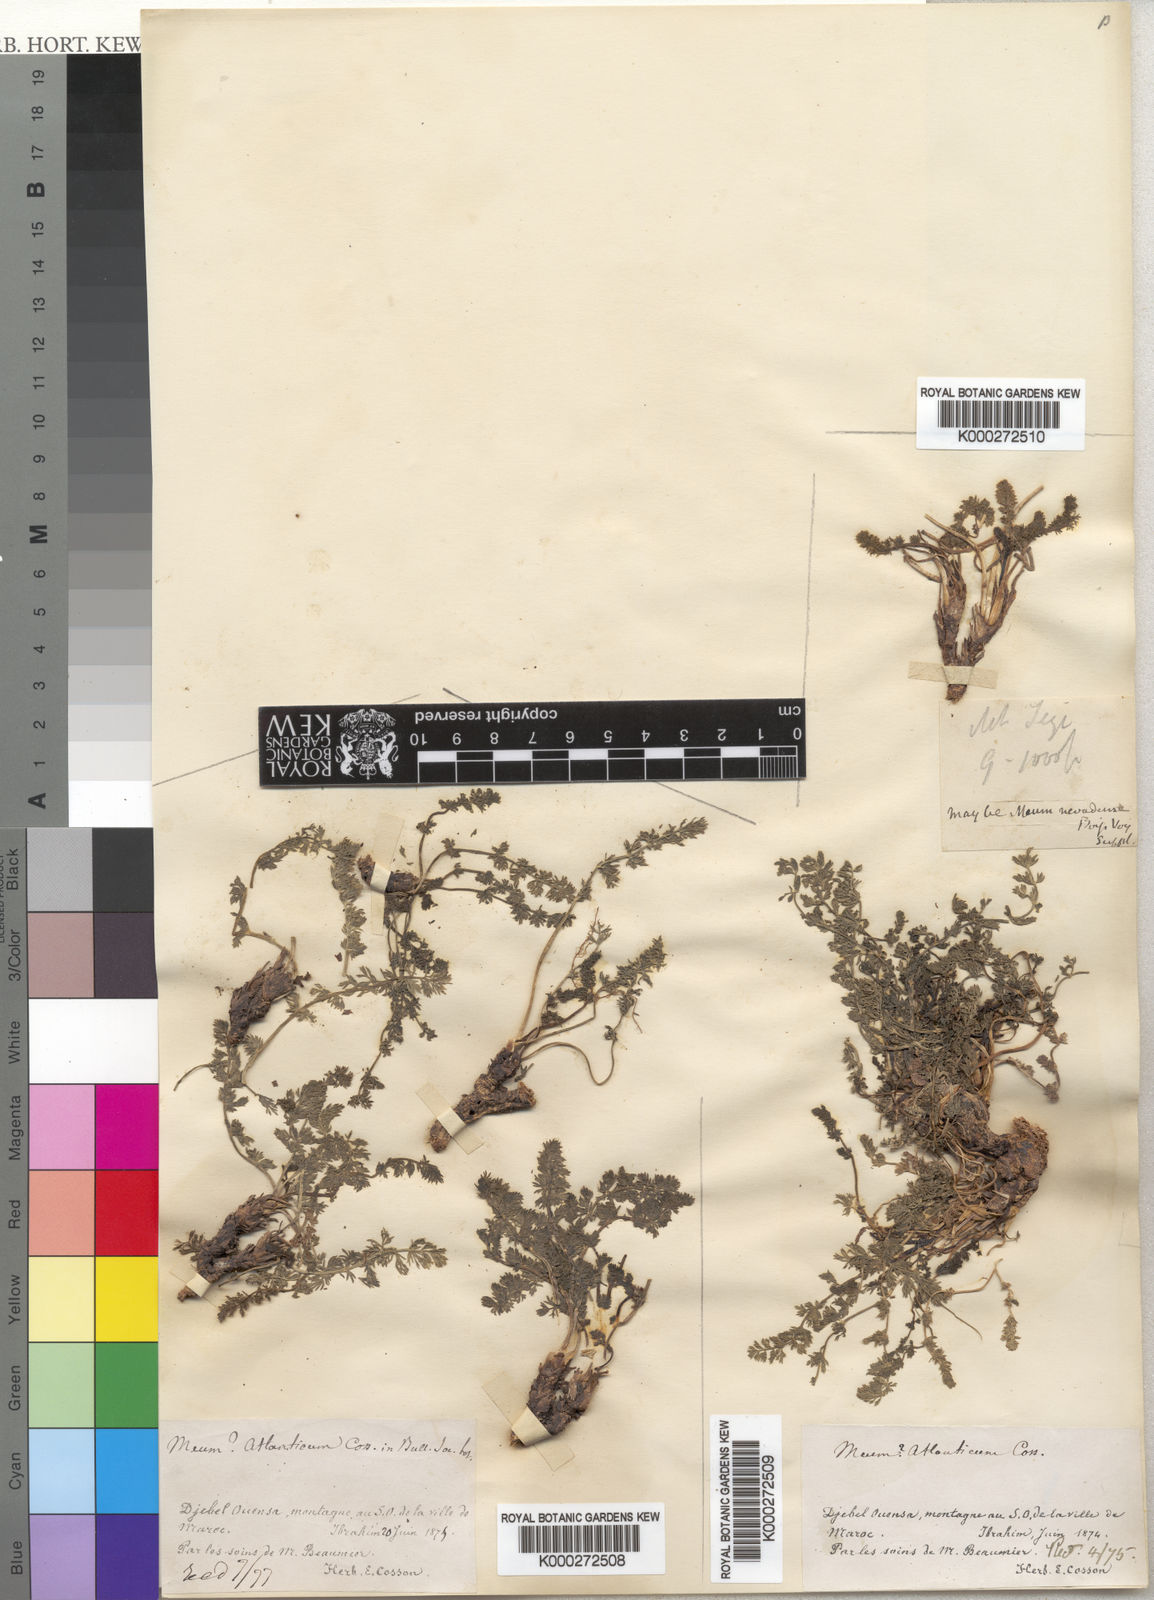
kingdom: Plantae
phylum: Tracheophyta
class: Magnoliopsida
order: Apiales
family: Apiaceae
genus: Meum
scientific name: Meum
